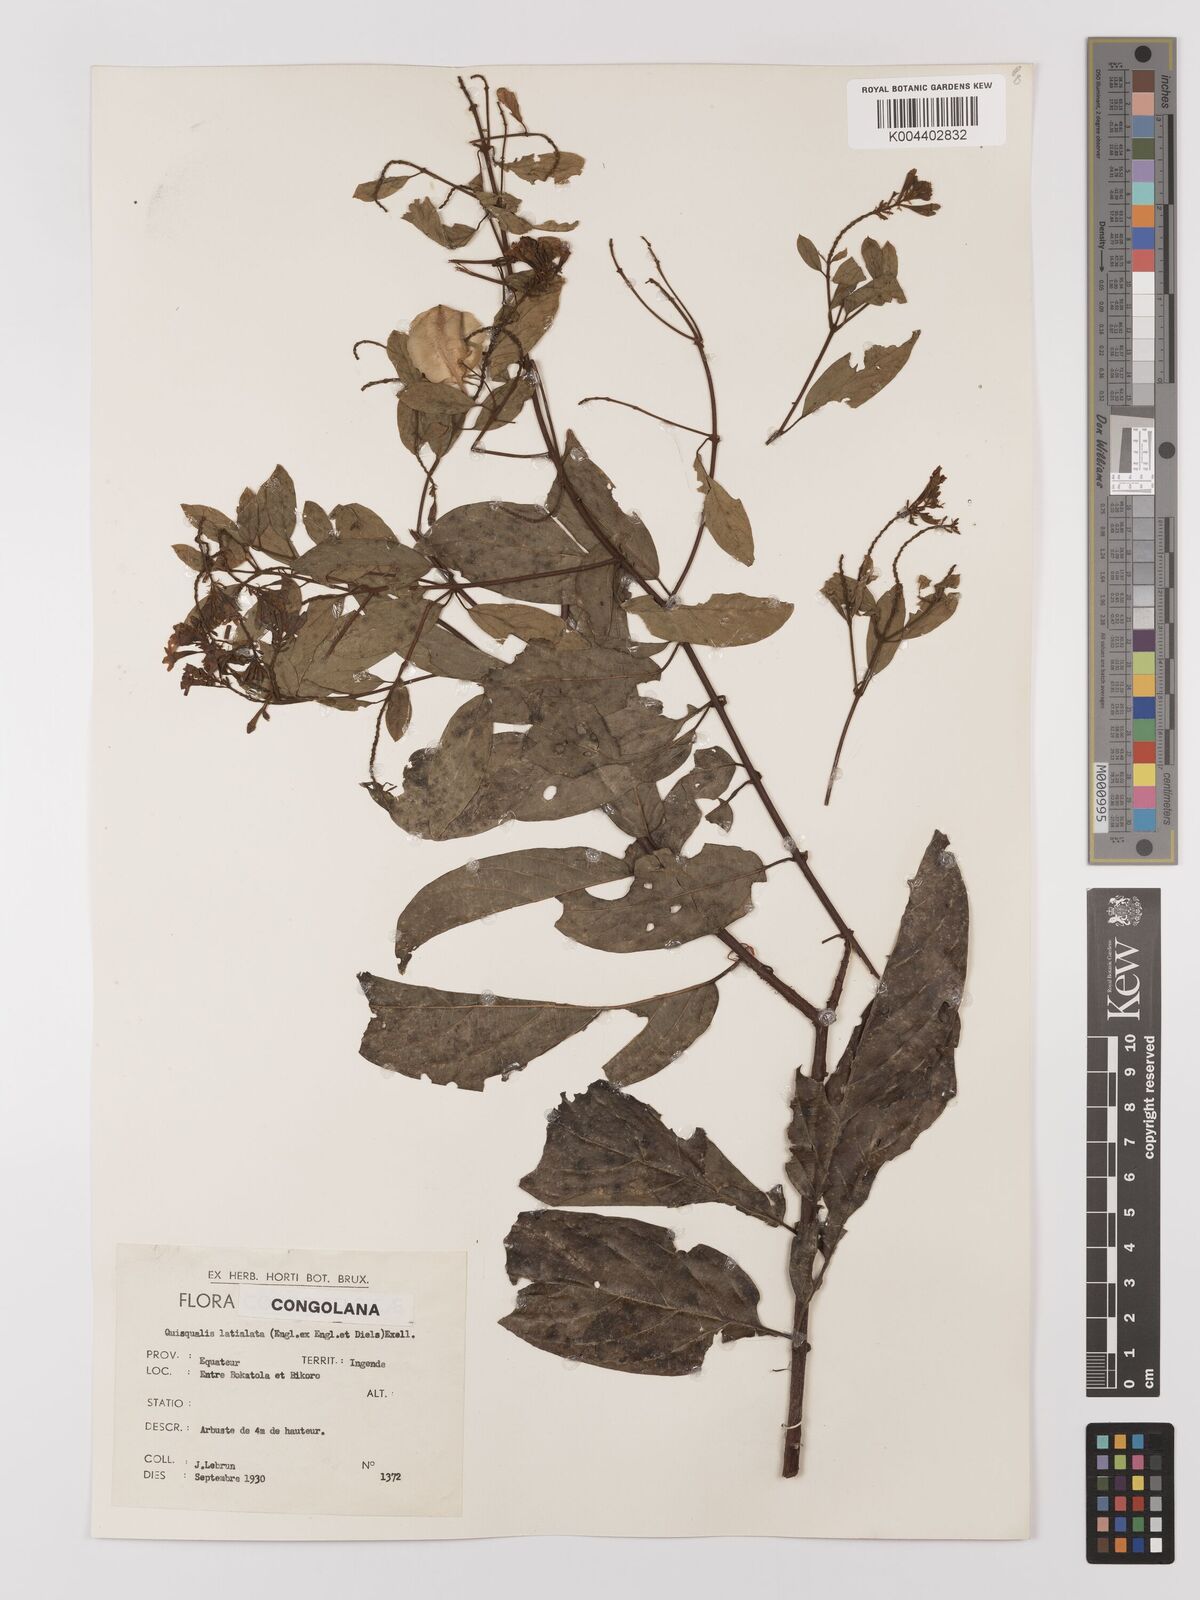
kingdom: Plantae
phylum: Tracheophyta
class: Magnoliopsida
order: Myrtales
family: Combretaceae
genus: Combretum
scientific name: Combretum latialatum
